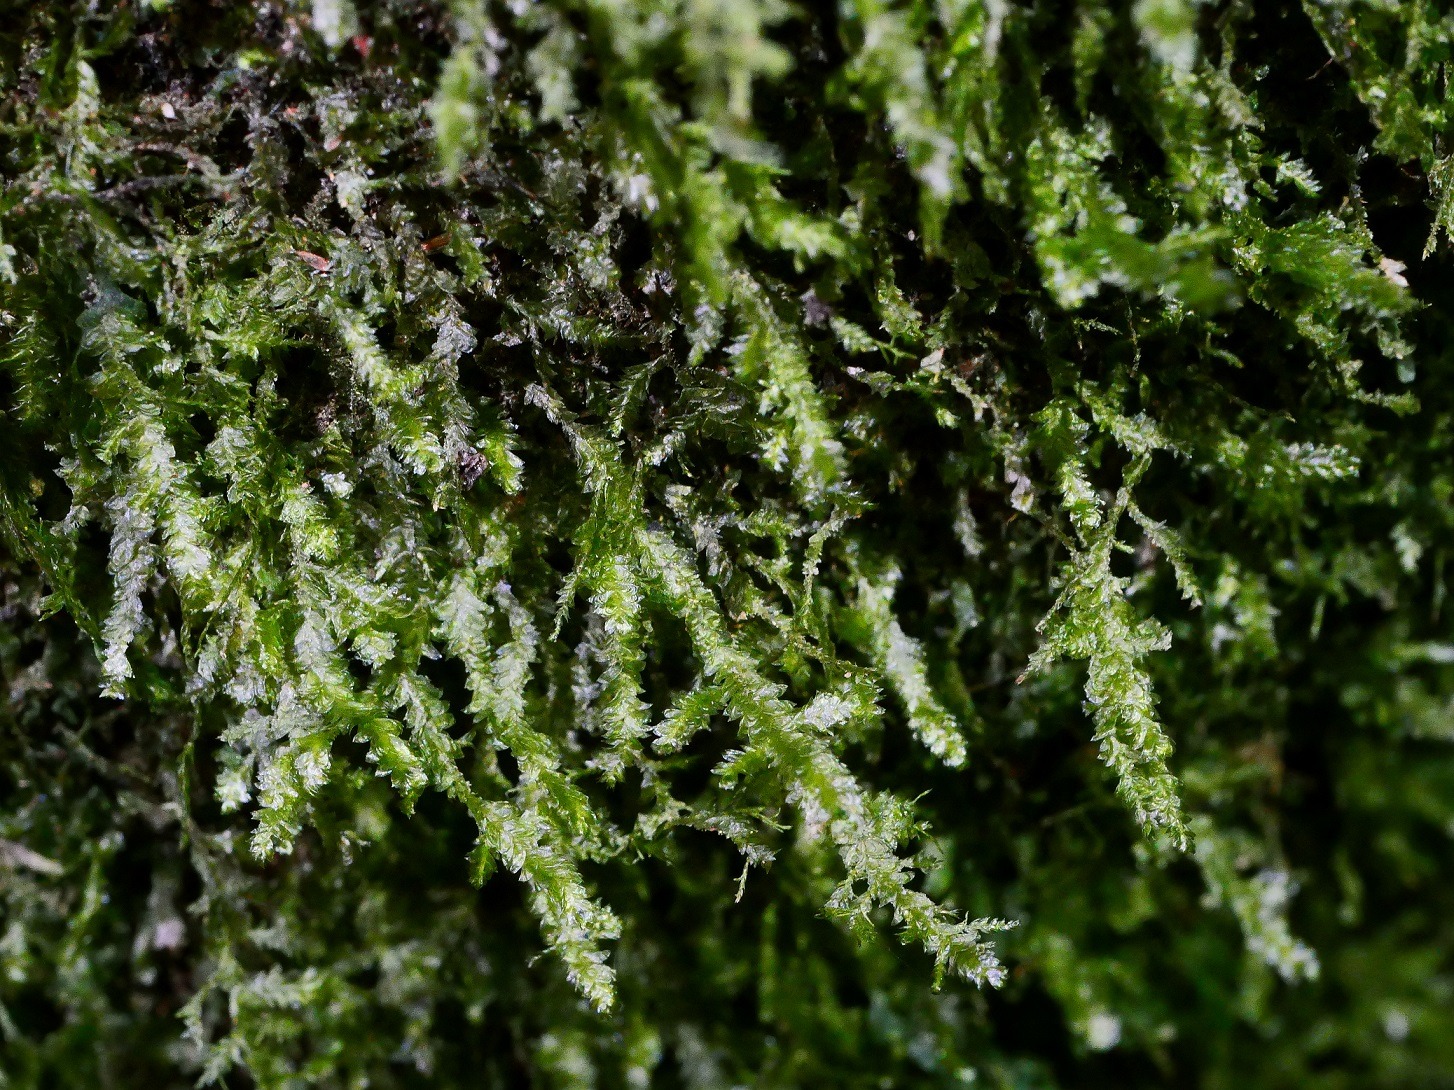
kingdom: Plantae
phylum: Bryophyta
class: Bryopsida
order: Hypnales
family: Neckeraceae
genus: Neckera
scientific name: Neckera pumila
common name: Lav fladmos
